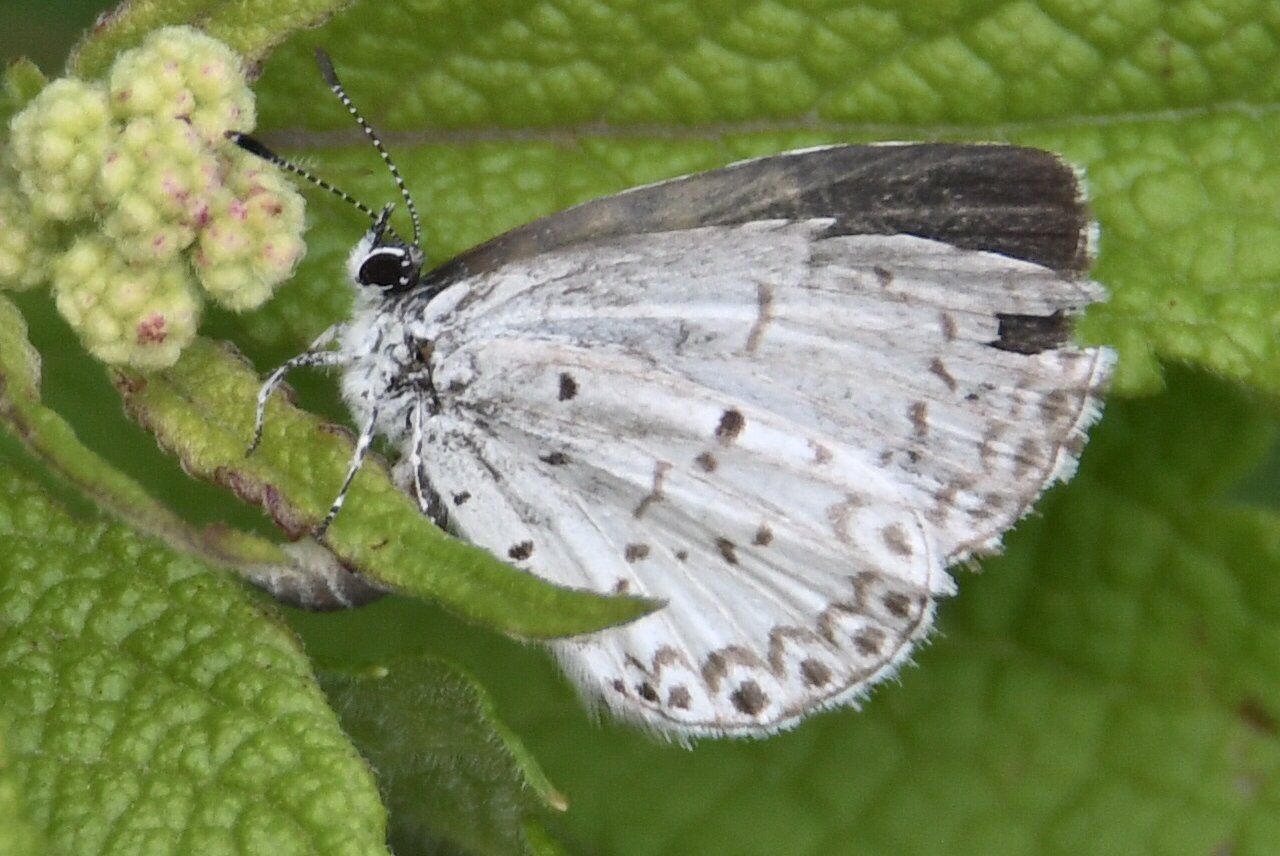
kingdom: Animalia
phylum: Arthropoda
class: Insecta
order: Lepidoptera
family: Lycaenidae
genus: Celastrina
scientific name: Celastrina lucia
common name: Northern Spring Azure
